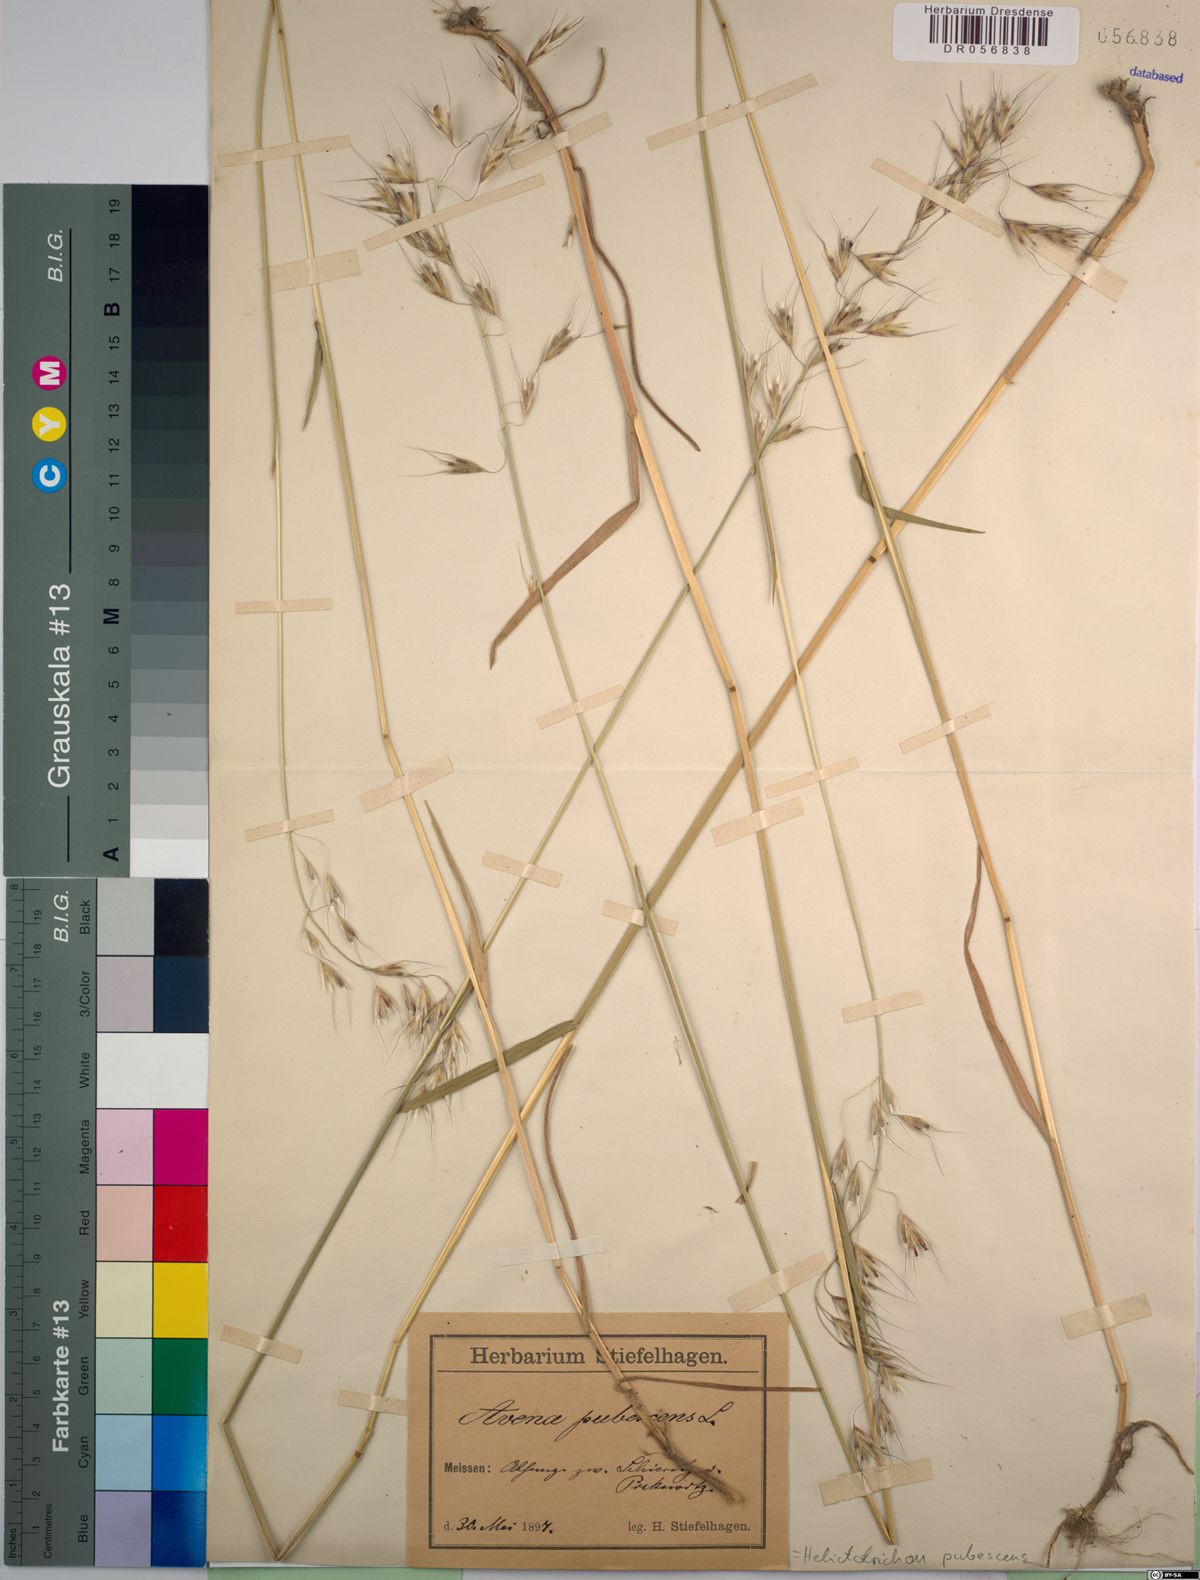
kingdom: Plantae
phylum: Tracheophyta
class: Liliopsida
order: Poales
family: Poaceae
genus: Avenula
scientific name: Avenula pubescens
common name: Downy alpine oatgrass
